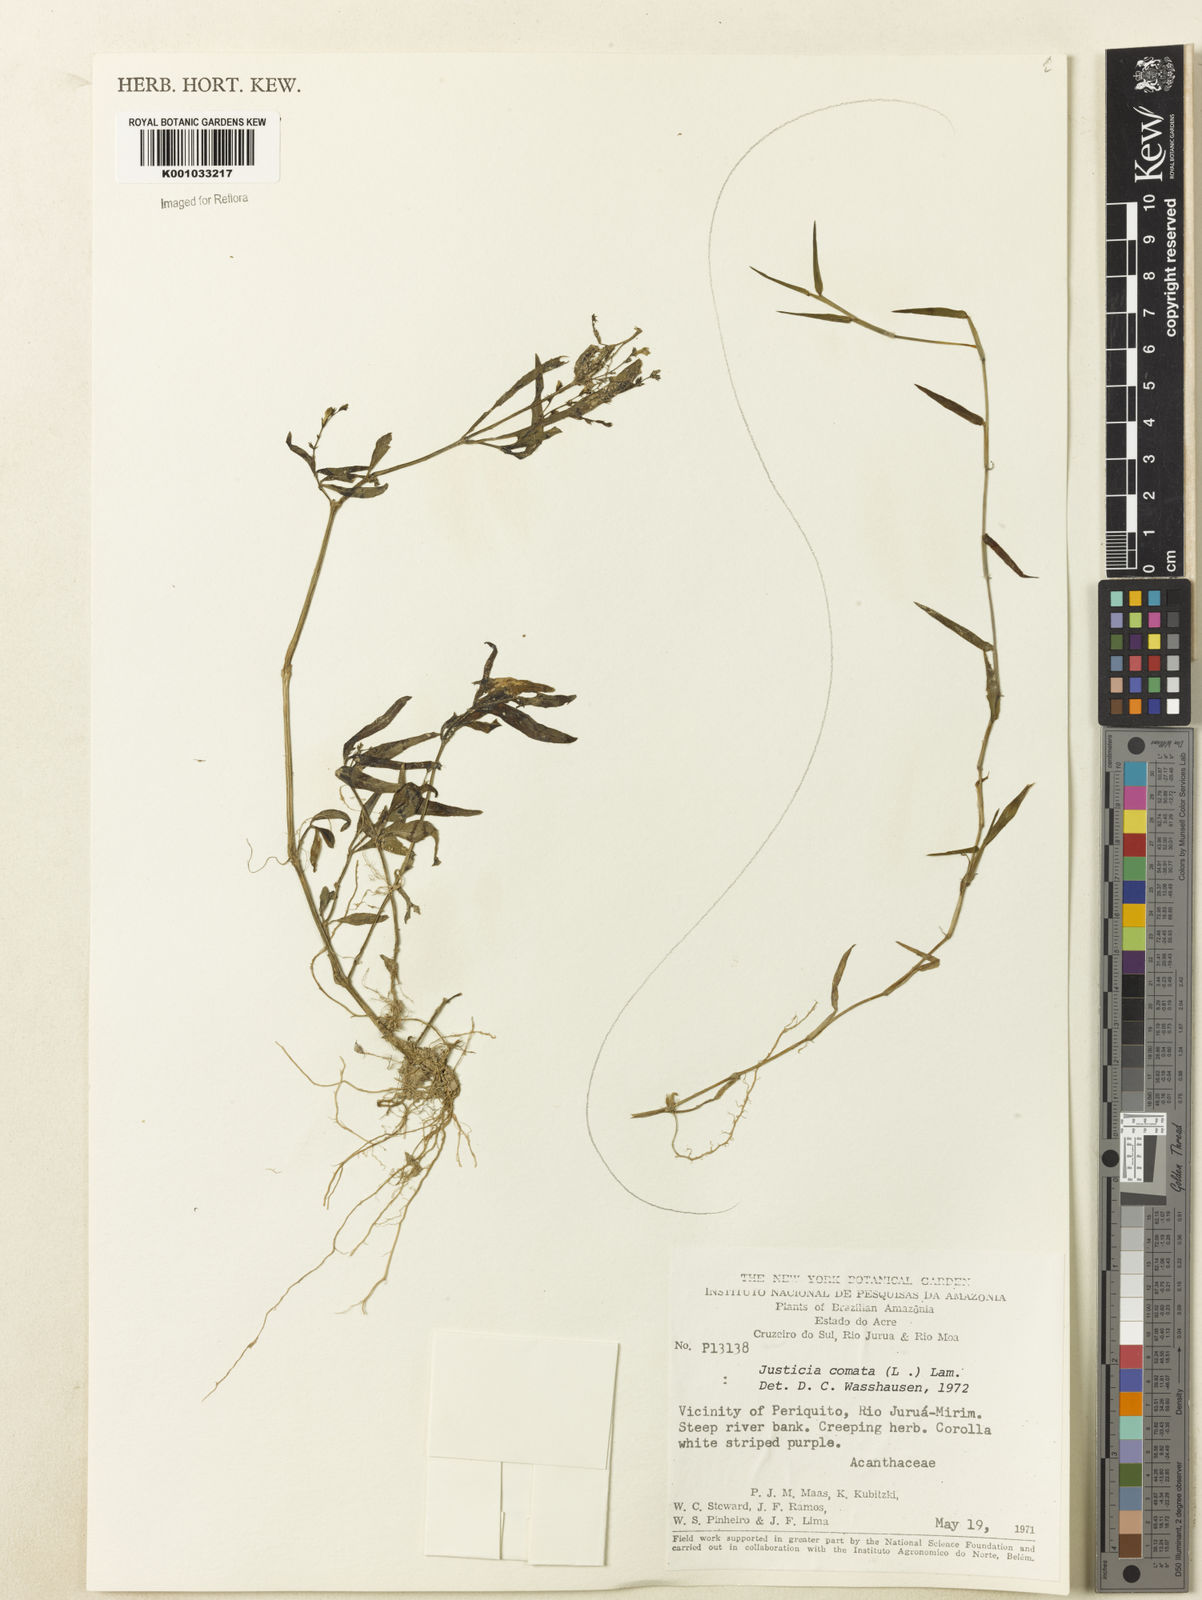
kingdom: Plantae
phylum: Tracheophyta
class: Magnoliopsida
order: Lamiales
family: Acanthaceae
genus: Dianthera
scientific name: Dianthera comata
